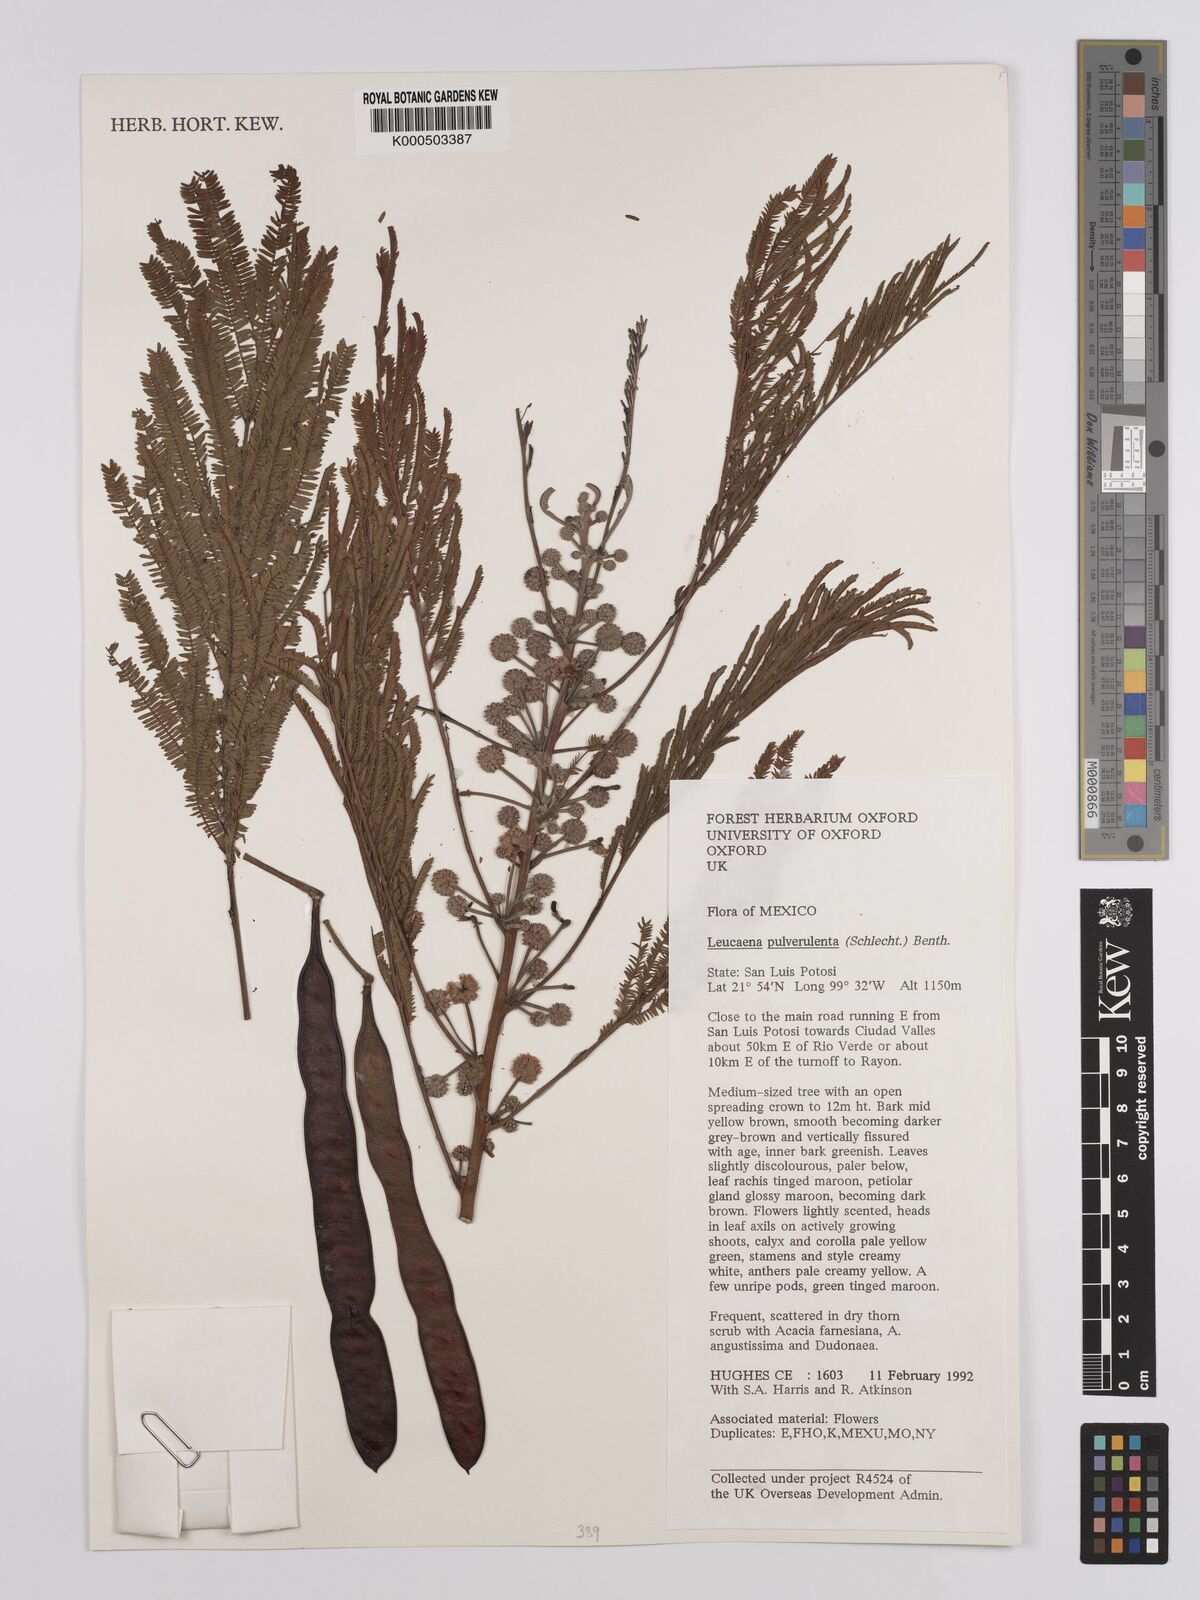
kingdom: Plantae
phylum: Tracheophyta
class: Magnoliopsida
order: Fabales
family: Fabaceae
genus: Leucaena
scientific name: Leucaena pulverulenta
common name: Great leadtree
